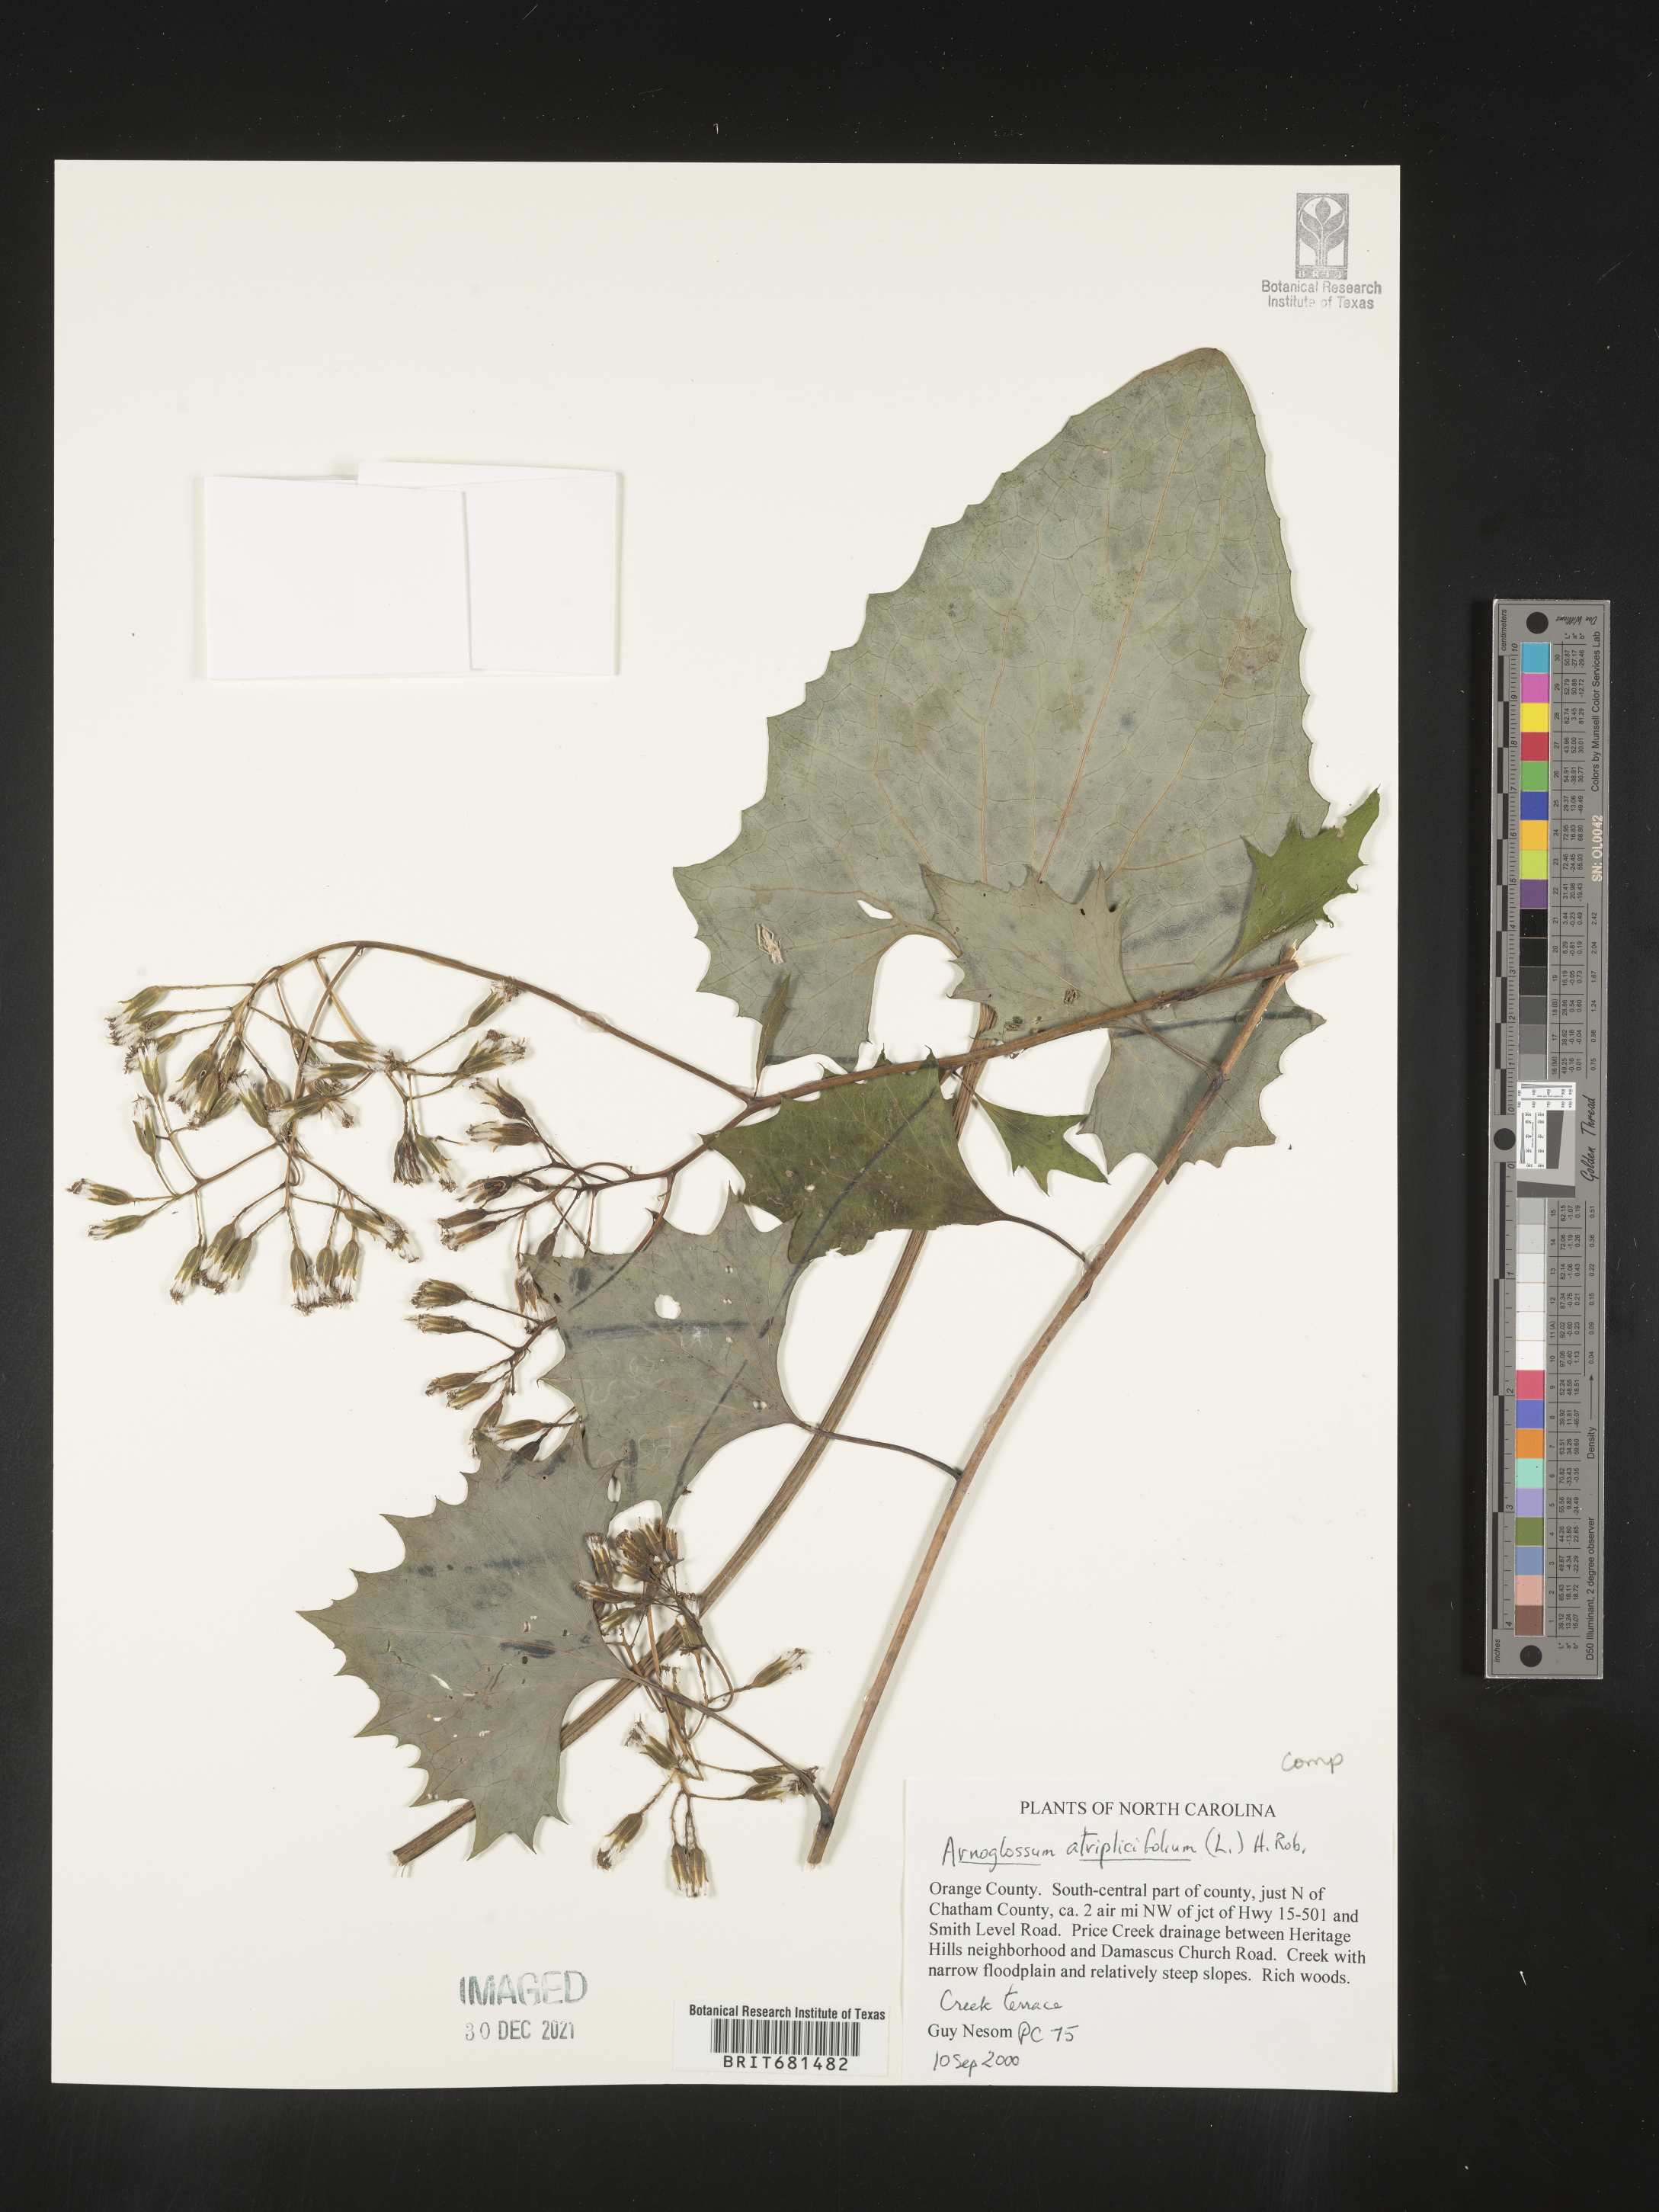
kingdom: Plantae
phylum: Tracheophyta
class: Magnoliopsida
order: Asterales
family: Asteraceae
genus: Arnoglossum
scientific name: Arnoglossum atriplicifolium
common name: Pale indian-plantain
